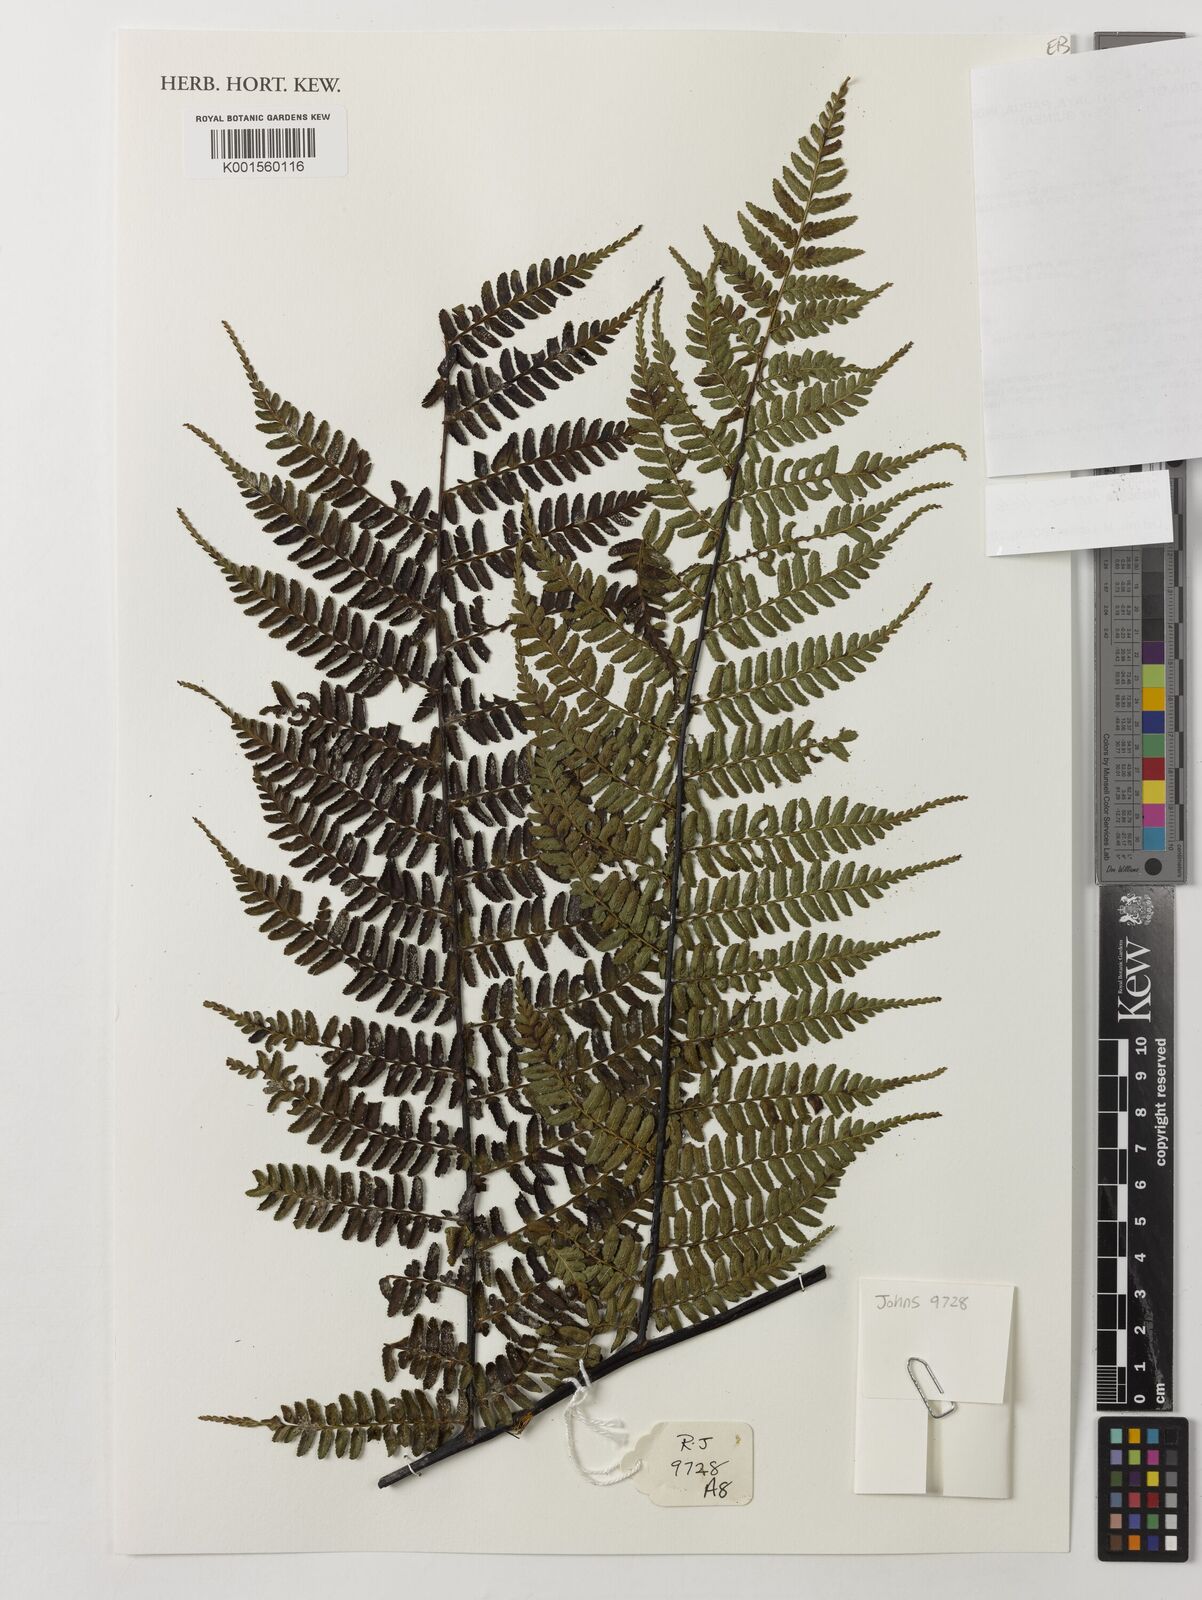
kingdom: Plantae
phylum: Tracheophyta
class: Polypodiopsida
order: Cyatheales
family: Cyatheaceae
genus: Gymnosphaera
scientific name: Gymnosphaera hornei
